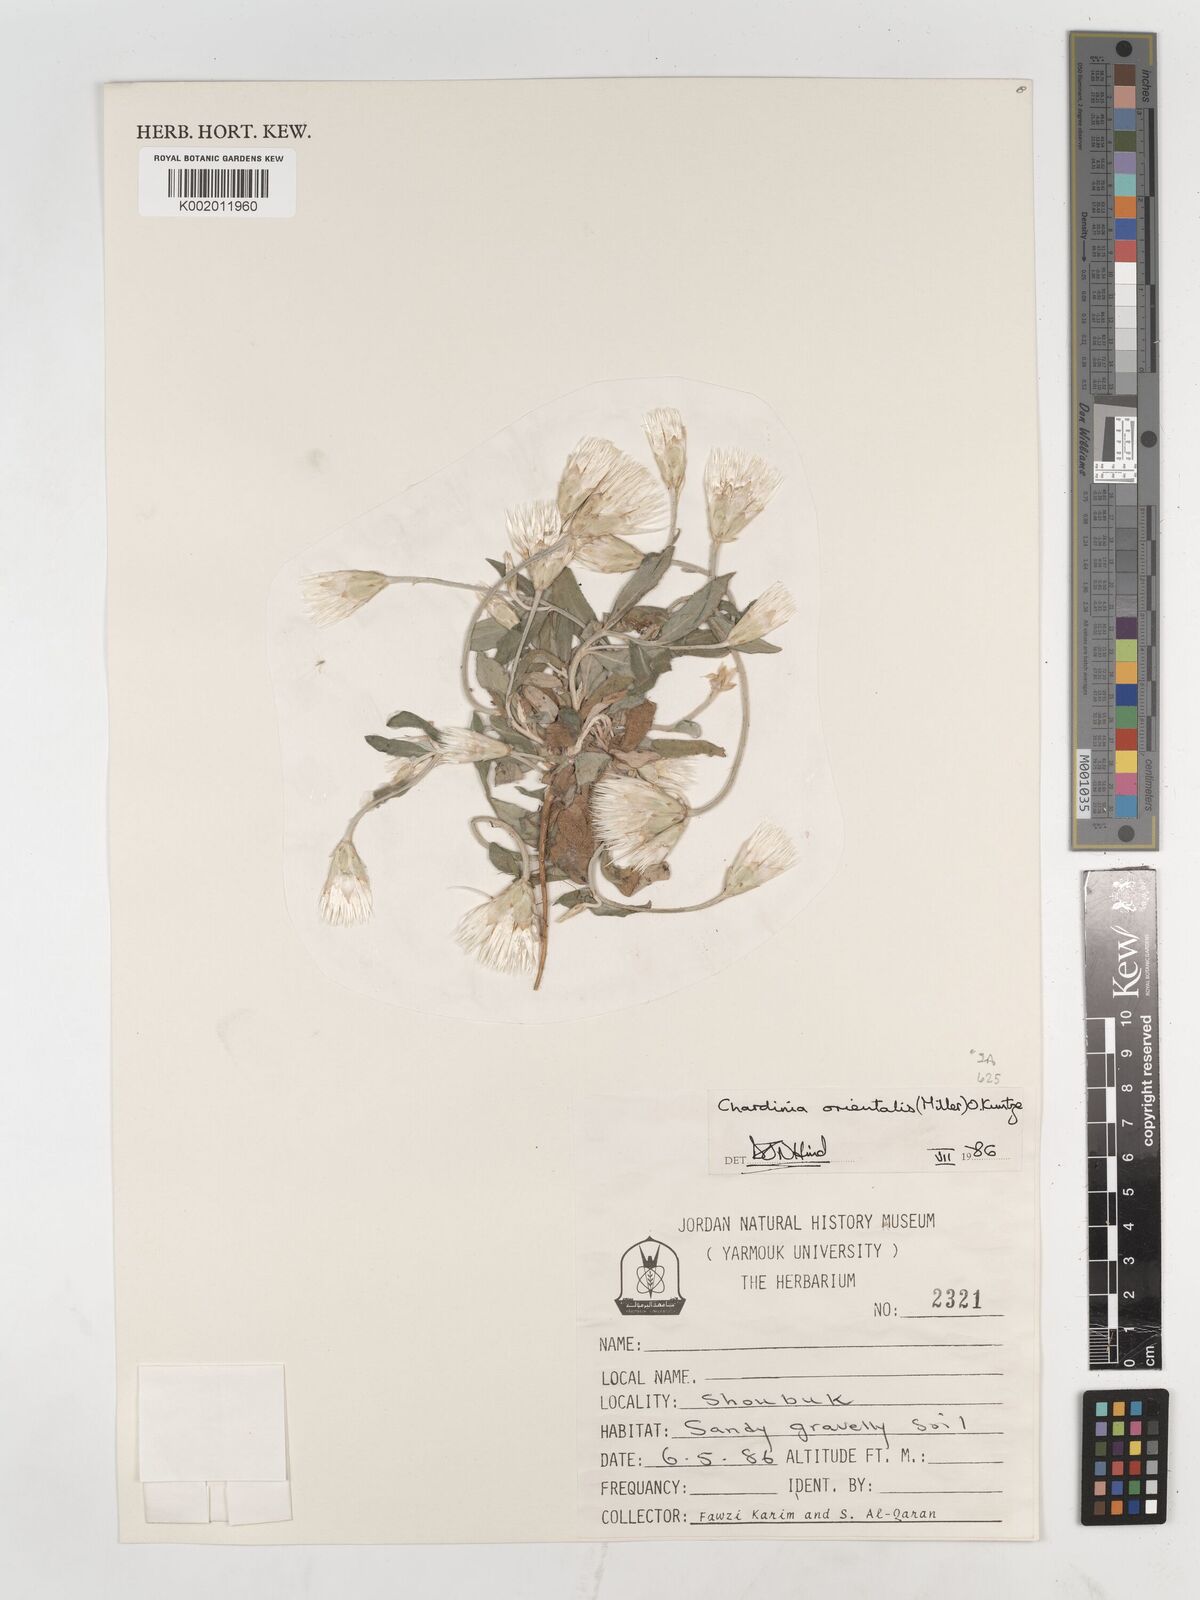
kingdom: Plantae
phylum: Tracheophyta
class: Magnoliopsida
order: Asterales
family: Asteraceae
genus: Chardinia
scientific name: Chardinia orientalis
